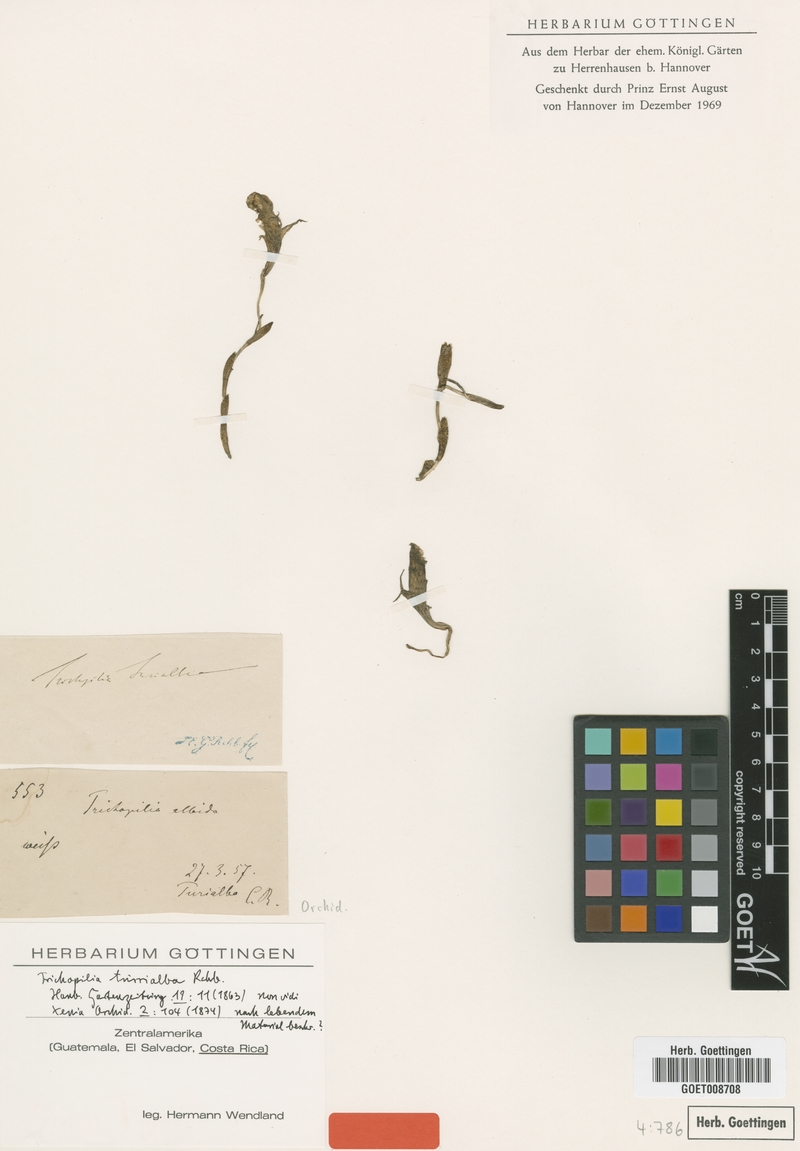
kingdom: Plantae
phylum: Tracheophyta
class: Liliopsida
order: Asparagales
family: Orchidaceae
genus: Trichopilia
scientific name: Trichopilia turialbae
